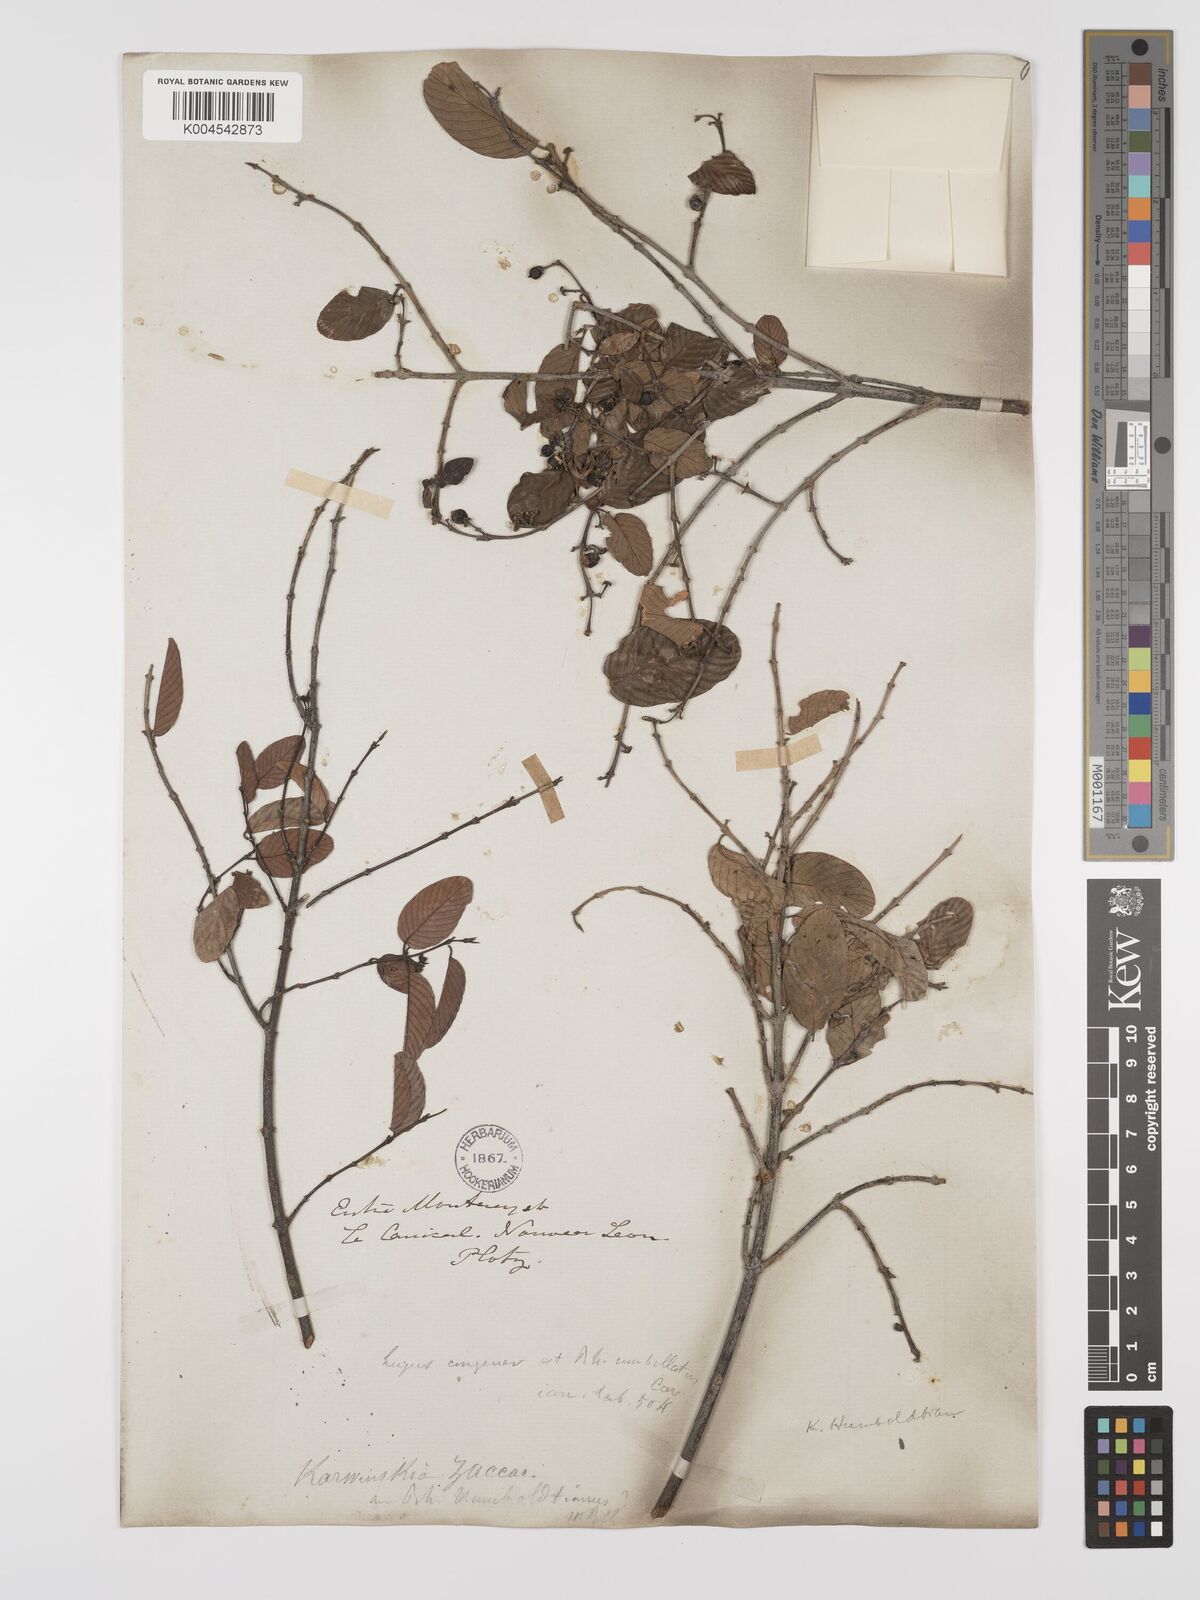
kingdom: Plantae
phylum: Tracheophyta
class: Magnoliopsida
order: Rosales
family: Rhamnaceae
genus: Karwinskia
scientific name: Karwinskia humboldtiana
